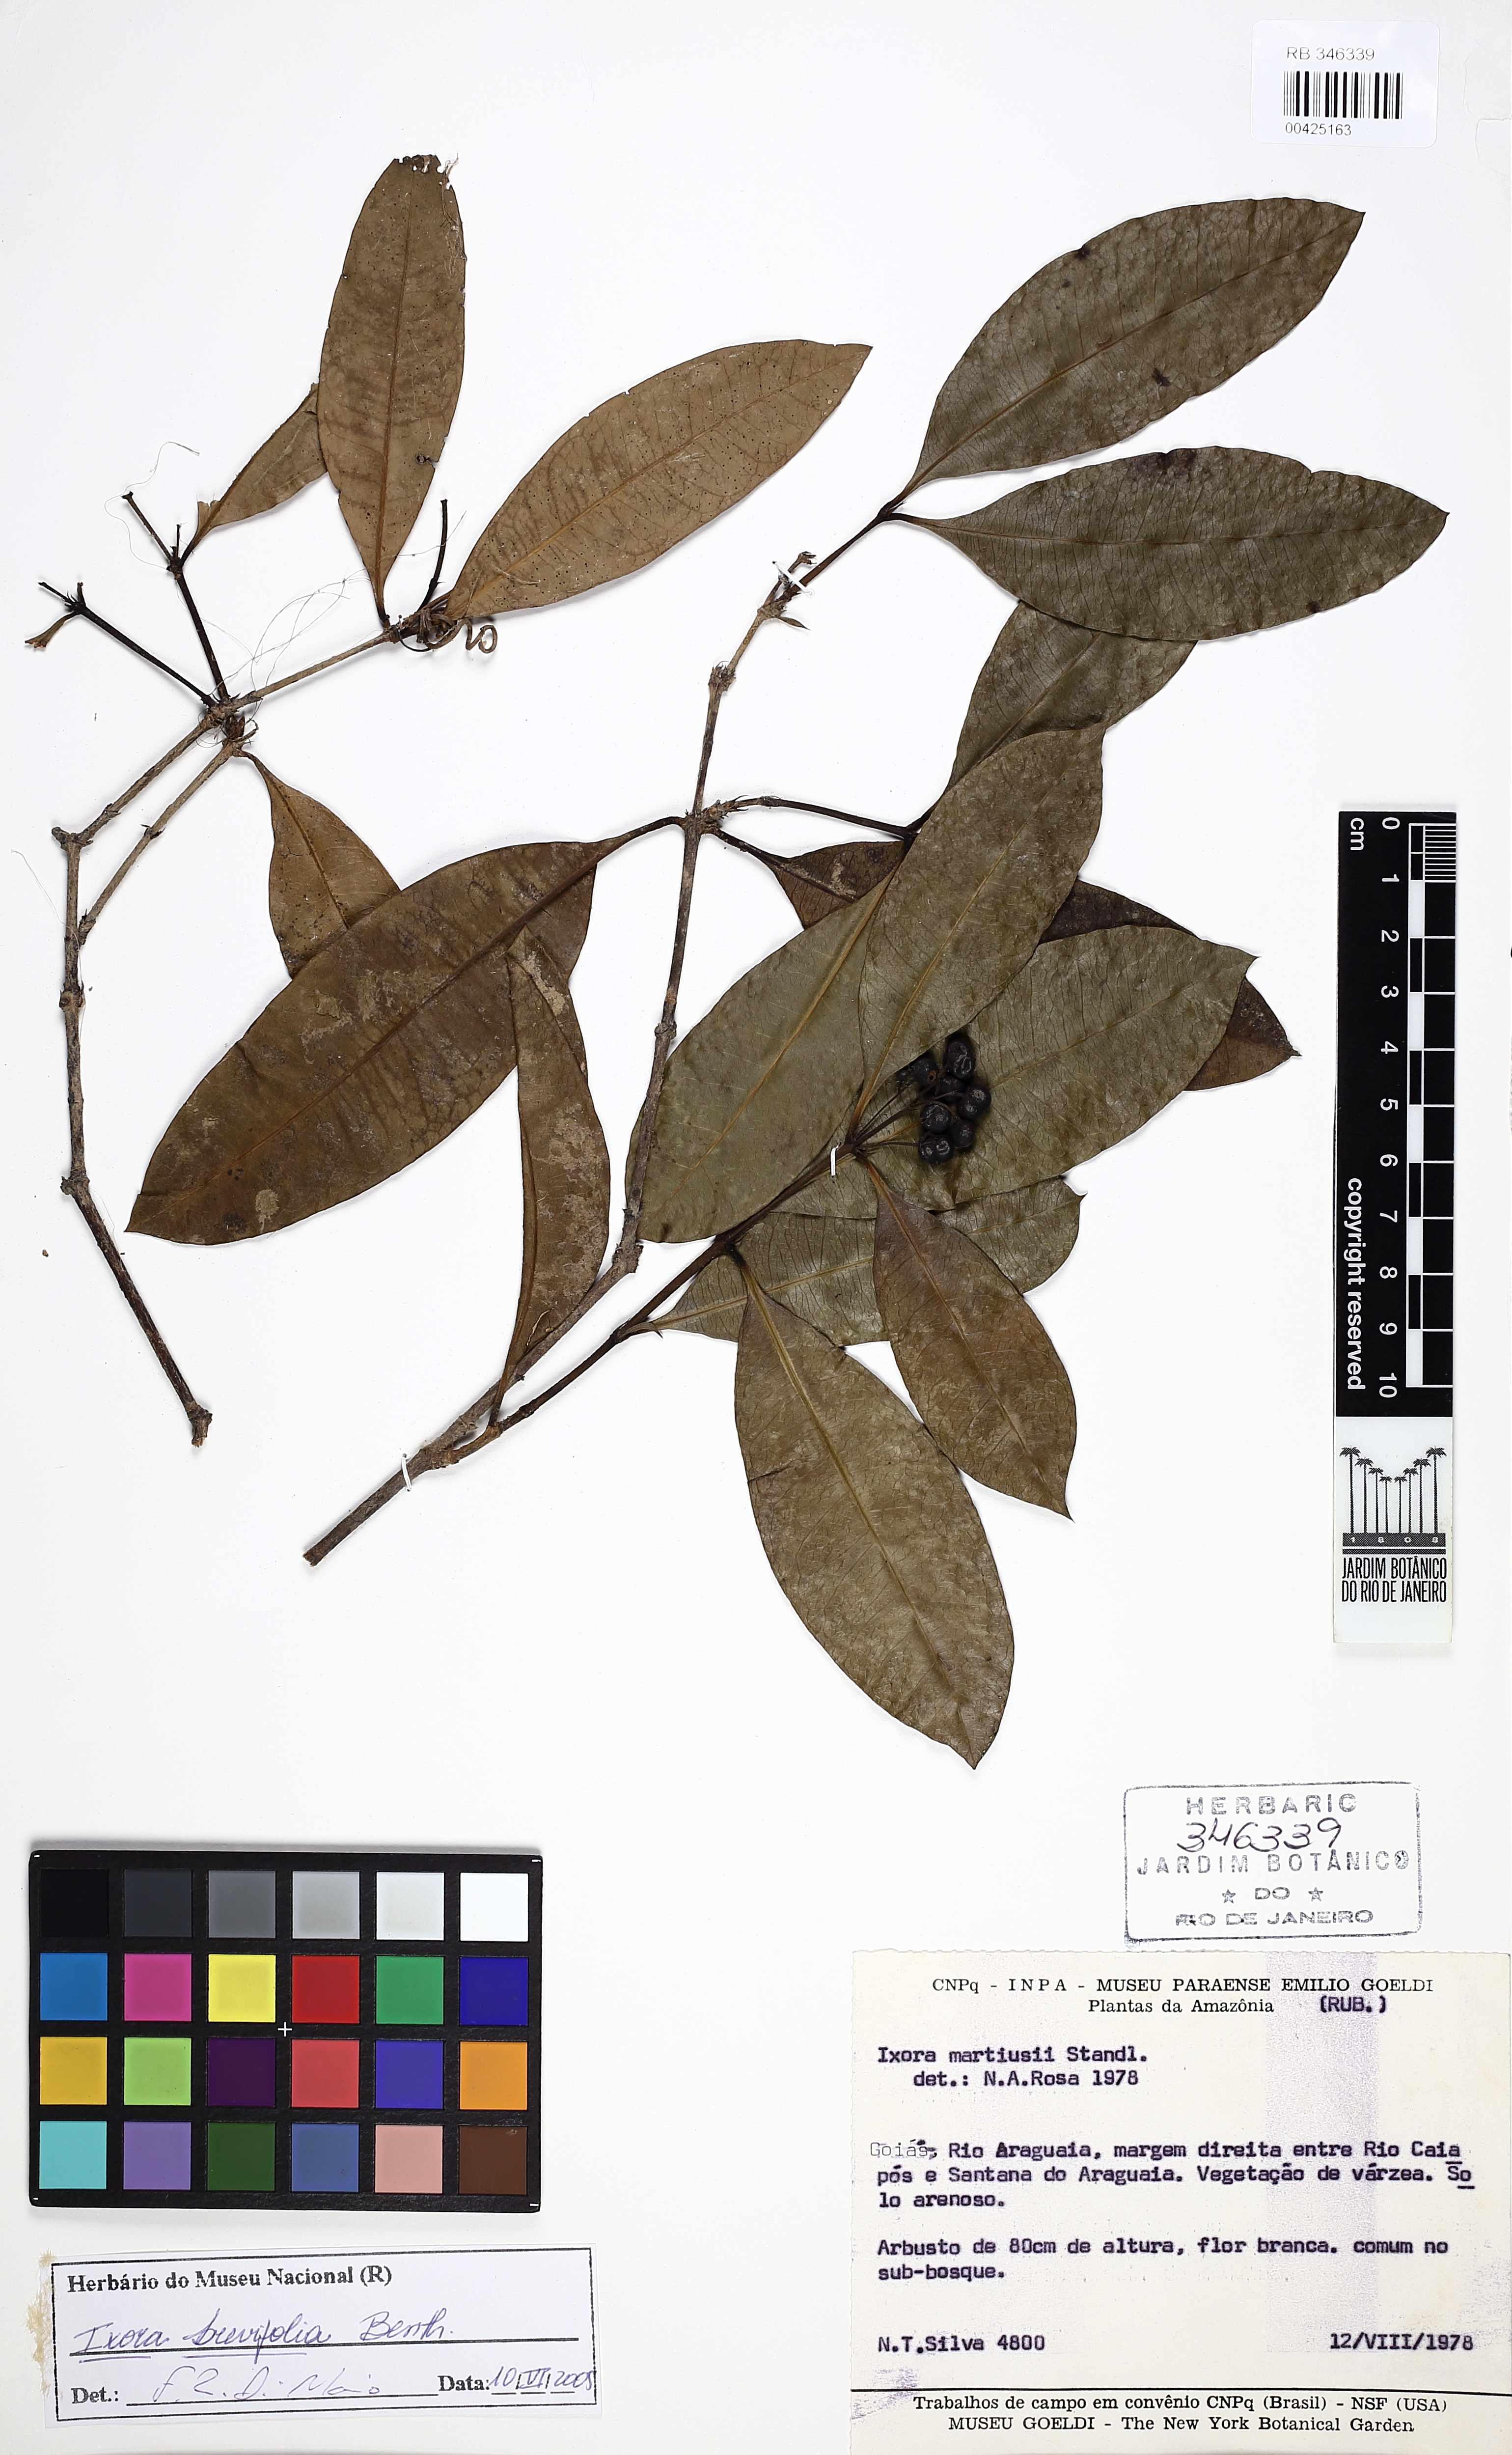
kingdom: Plantae
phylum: Tracheophyta
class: Magnoliopsida
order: Gentianales
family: Rubiaceae
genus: Ixora
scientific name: Ixora brevifolia
